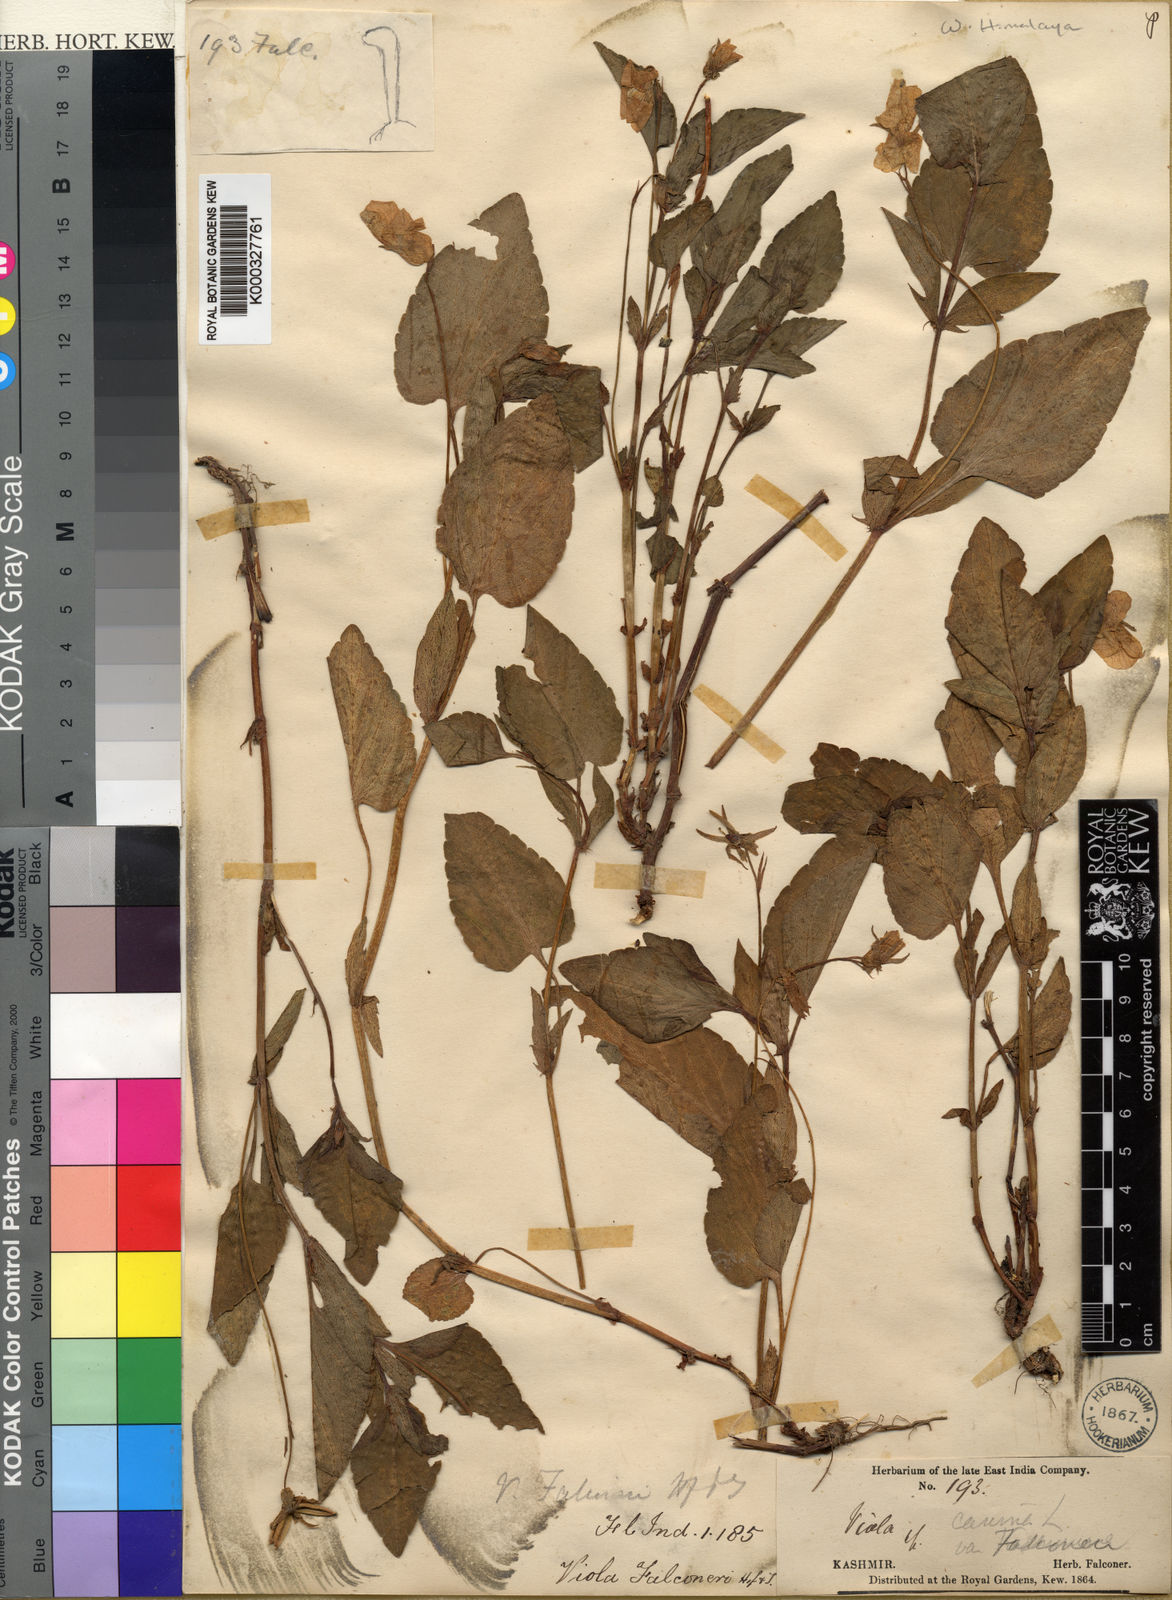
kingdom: Plantae
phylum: Tracheophyta
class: Magnoliopsida
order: Malpighiales
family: Violaceae
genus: Viola
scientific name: Viola jordanii
